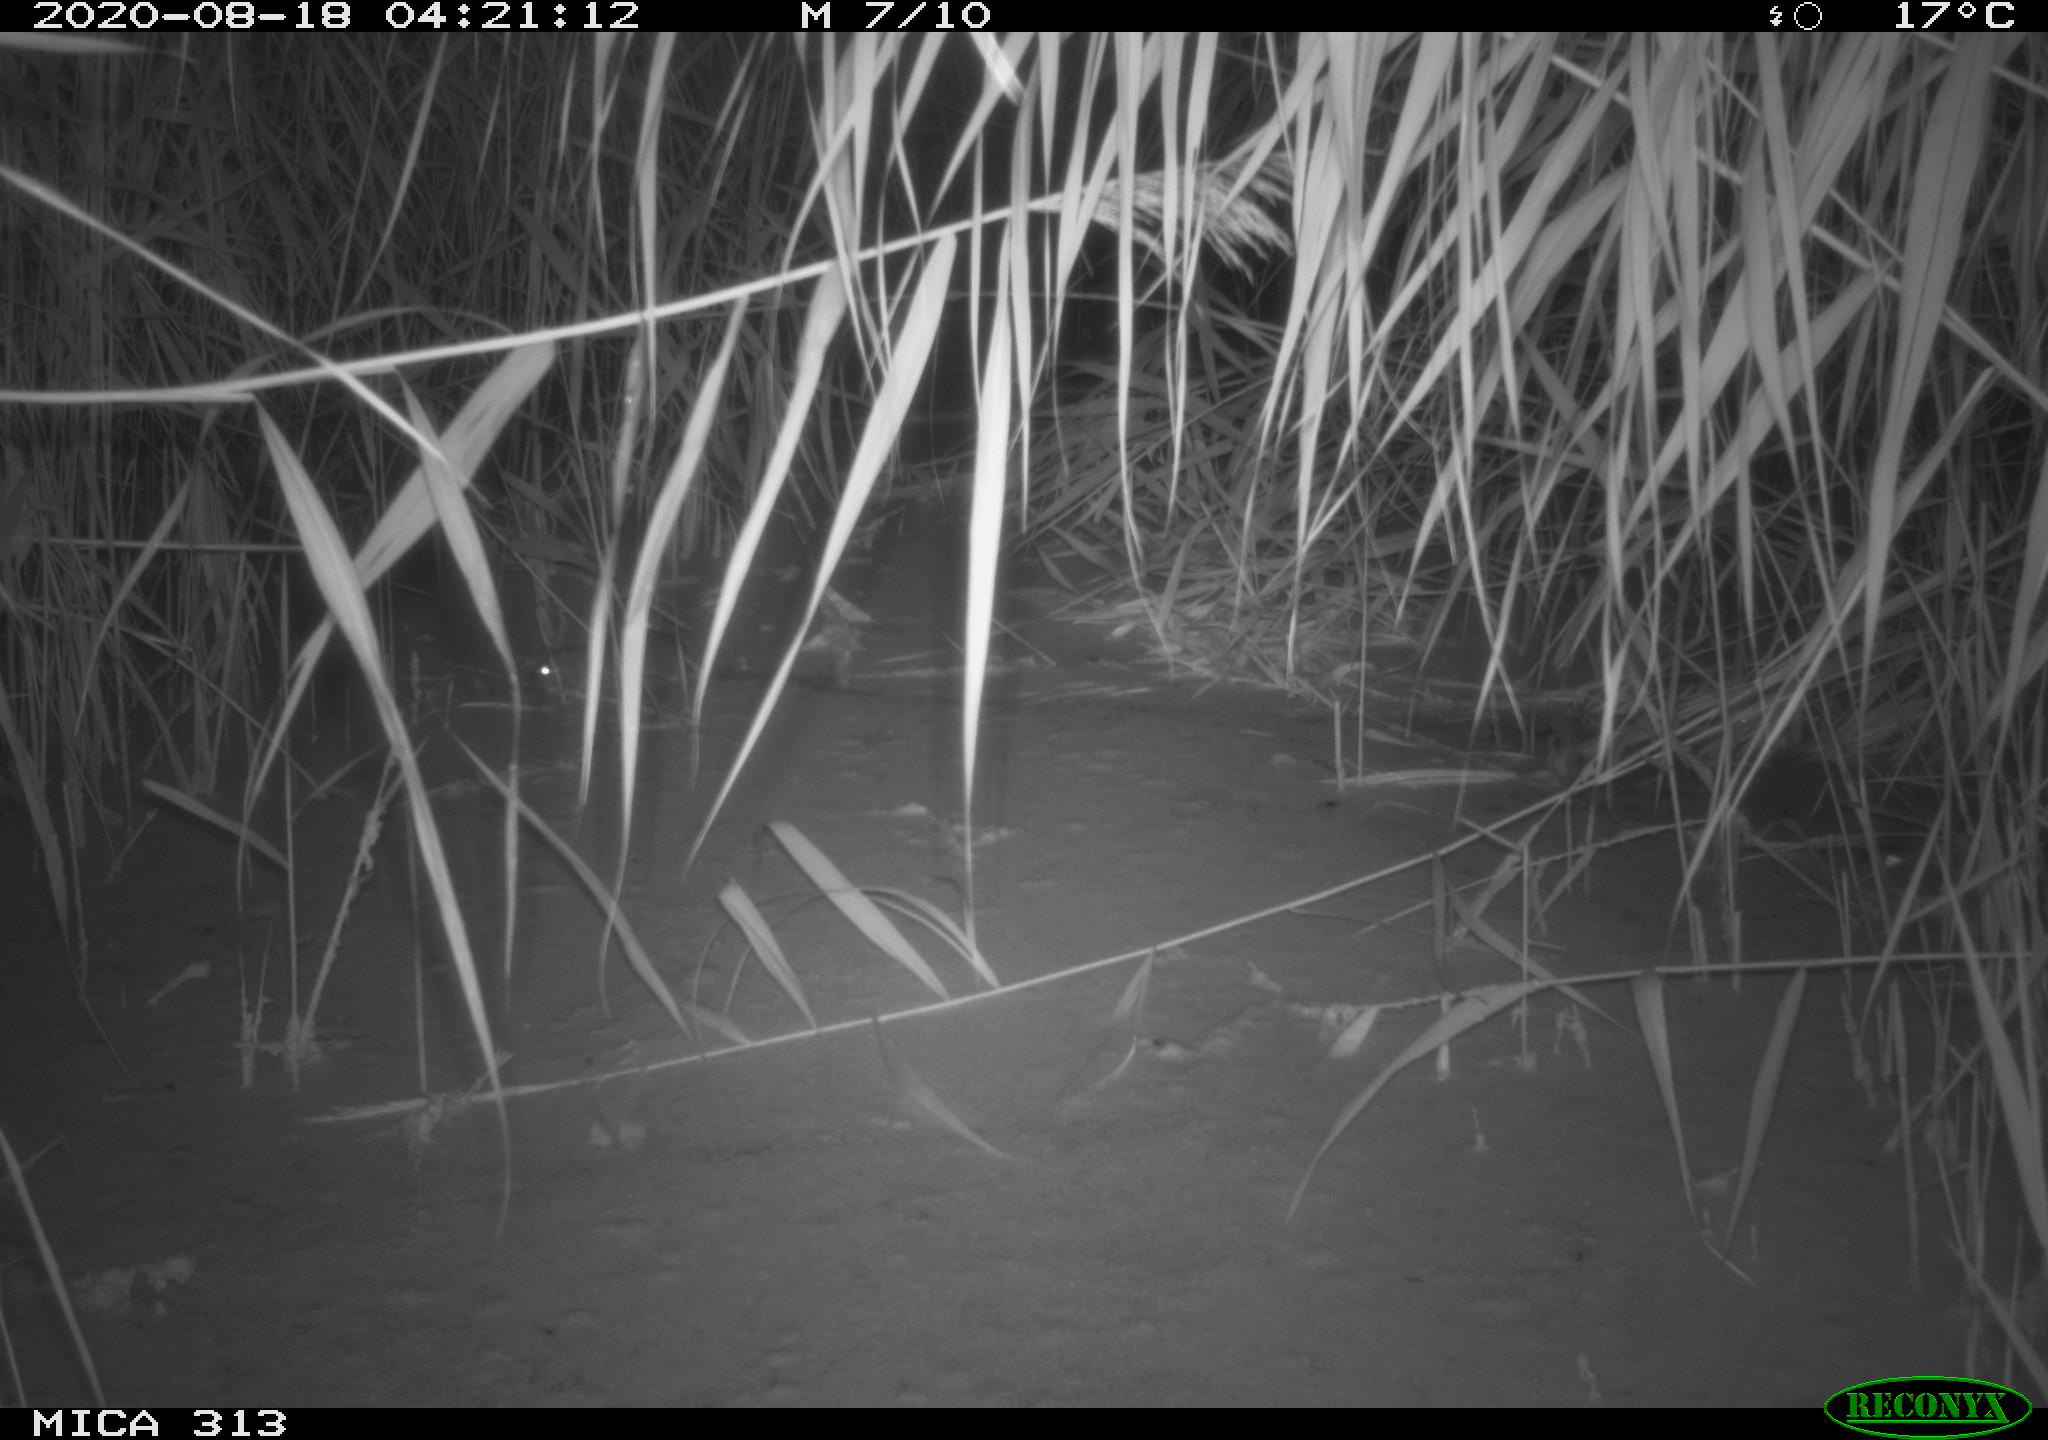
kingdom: Animalia
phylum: Chordata
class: Mammalia
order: Rodentia
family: Muridae
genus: Rattus
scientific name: Rattus norvegicus
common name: Brown rat
